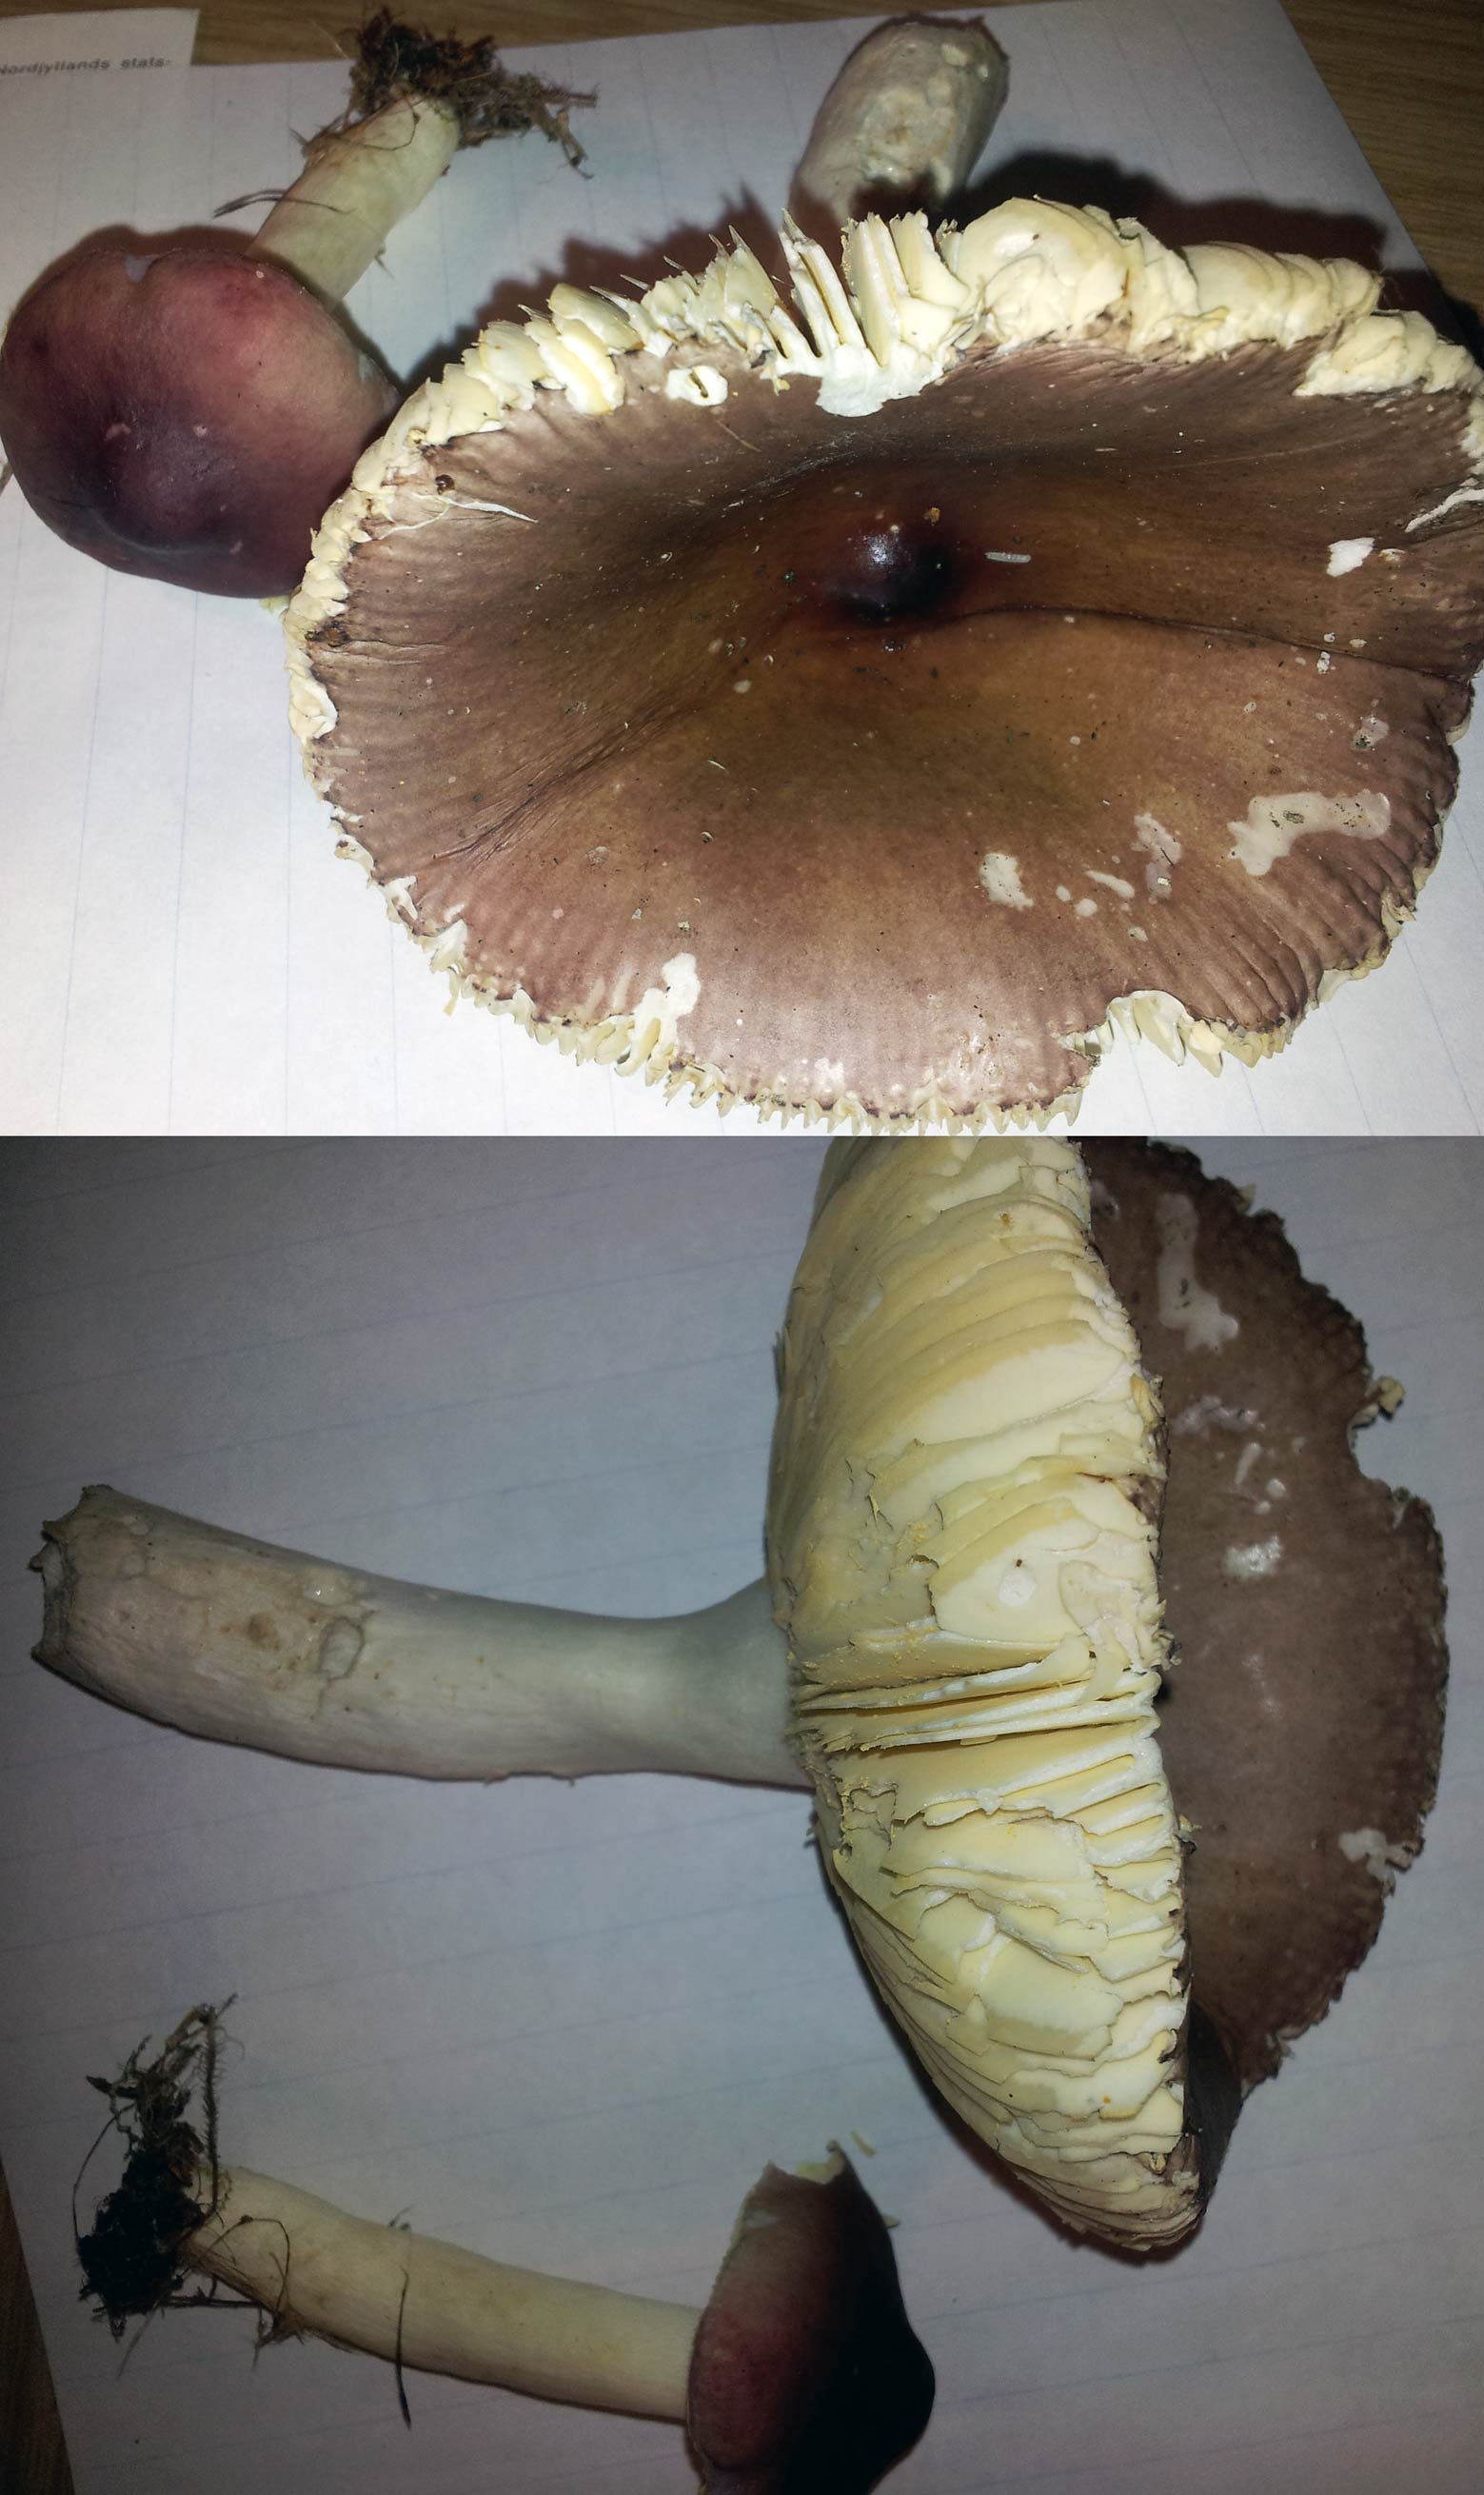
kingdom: Fungi
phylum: Basidiomycota
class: Agaricomycetes
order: Russulales
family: Russulaceae
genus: Russula
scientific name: Russula caerulea
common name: puklet skørhat
